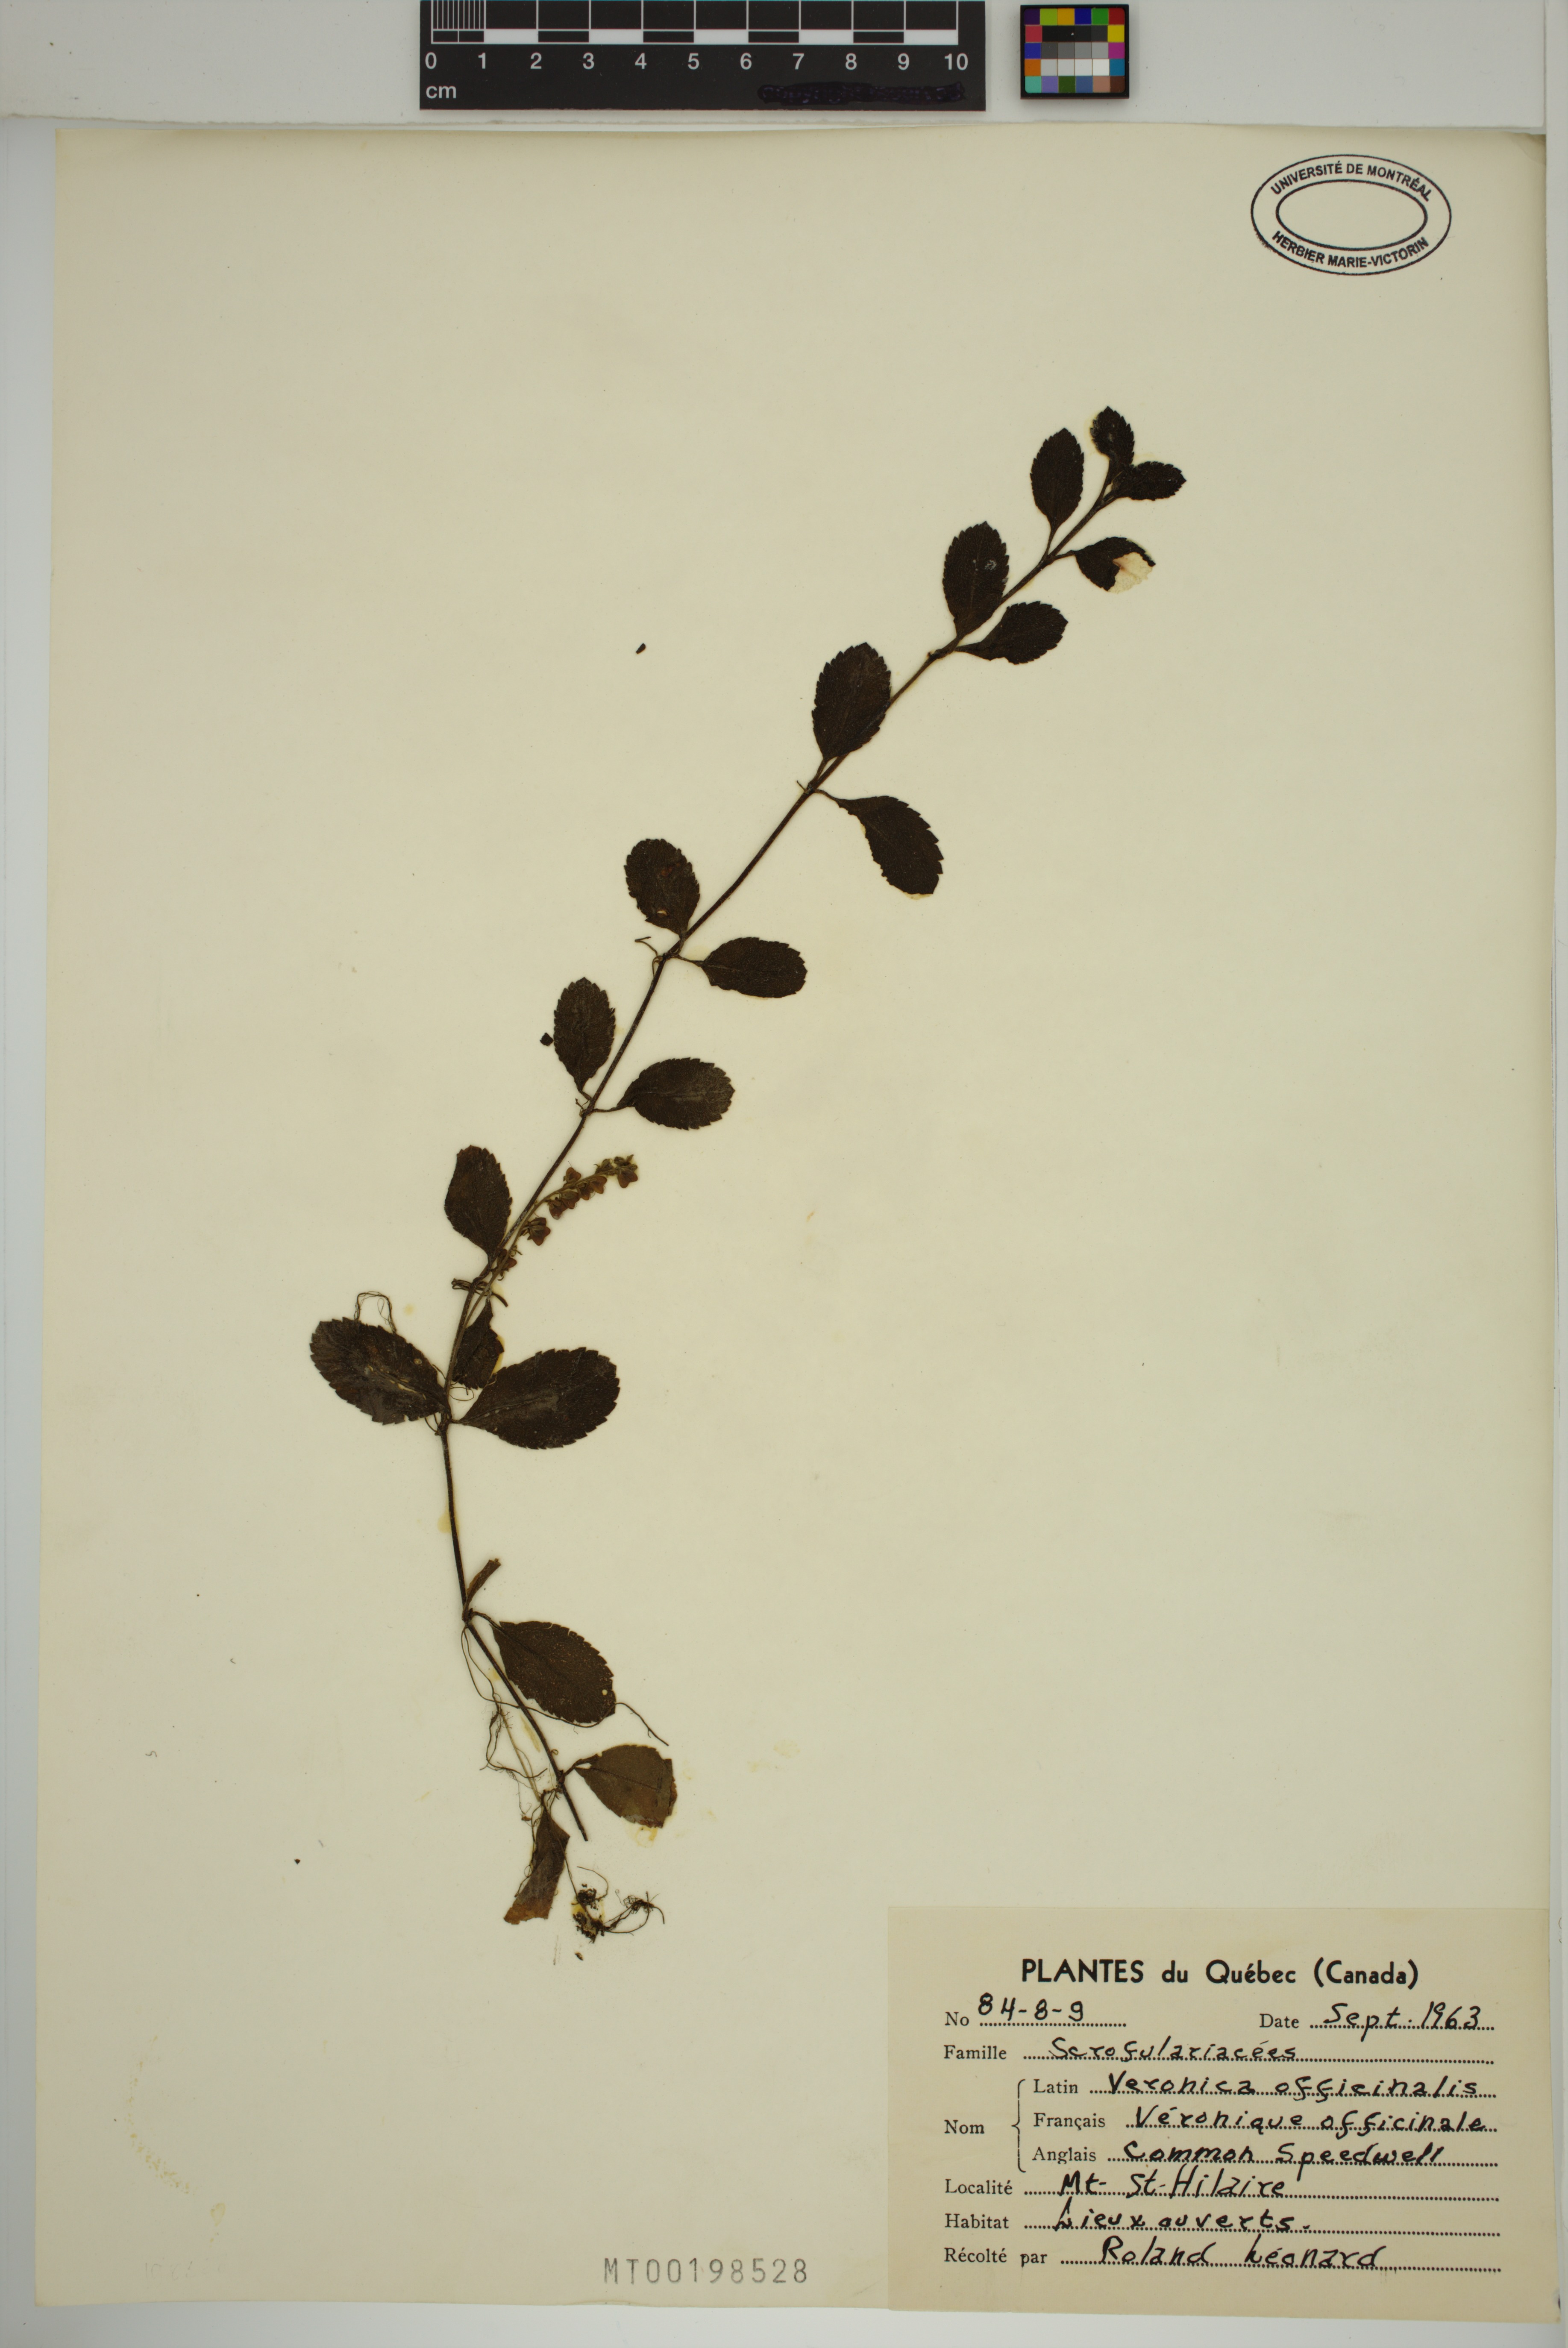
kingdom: Plantae
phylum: Tracheophyta
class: Magnoliopsida
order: Lamiales
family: Plantaginaceae
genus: Veronica
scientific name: Veronica officinalis
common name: Common speedwell
